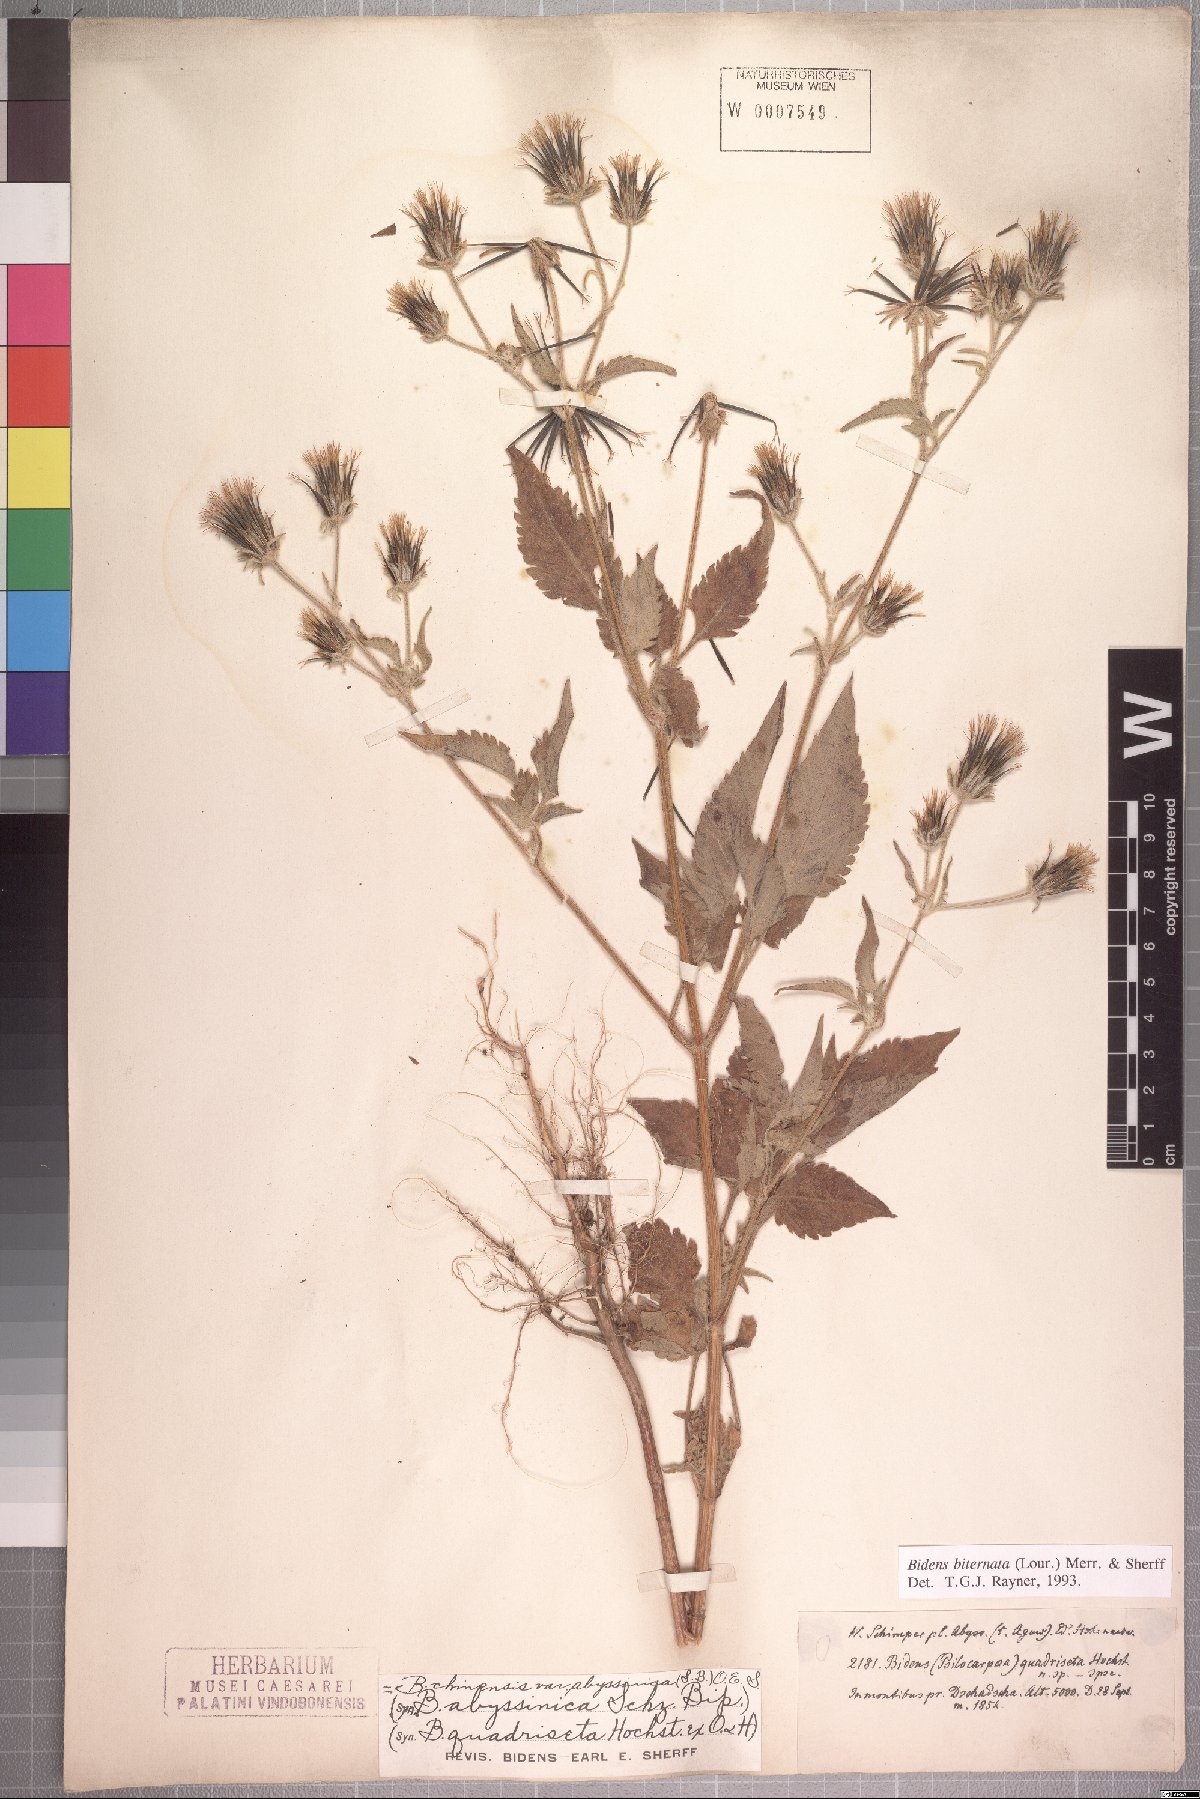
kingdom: Plantae
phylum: Tracheophyta
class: Magnoliopsida
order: Asterales
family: Asteraceae
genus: Bidens
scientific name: Bidens biternata
